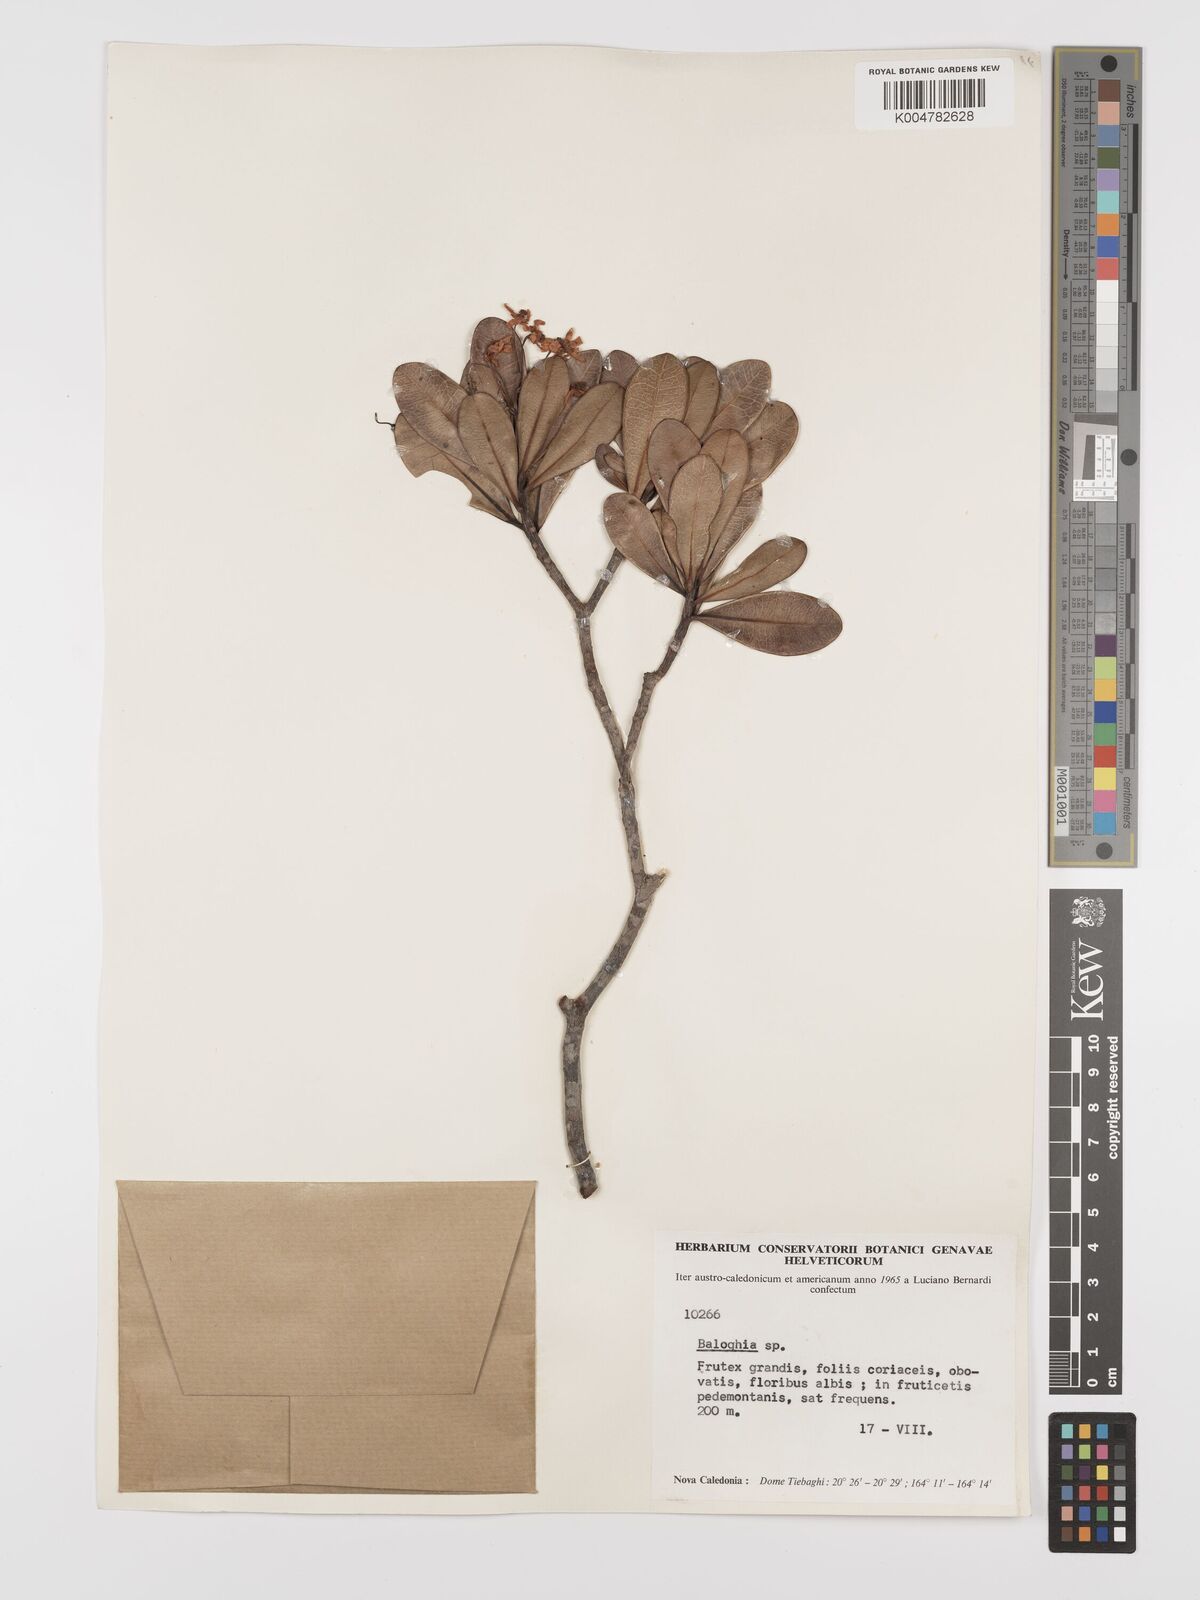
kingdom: Plantae
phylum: Tracheophyta
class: Magnoliopsida
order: Malpighiales
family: Euphorbiaceae
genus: Baloghia
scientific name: Baloghia drimiflora
